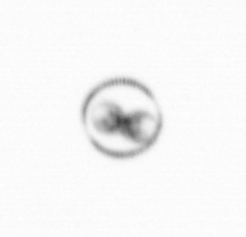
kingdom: Chromista
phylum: Myzozoa
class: Dinophyceae
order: Noctilucales
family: Noctilucaceae
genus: Noctiluca
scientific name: Noctiluca scintillans
